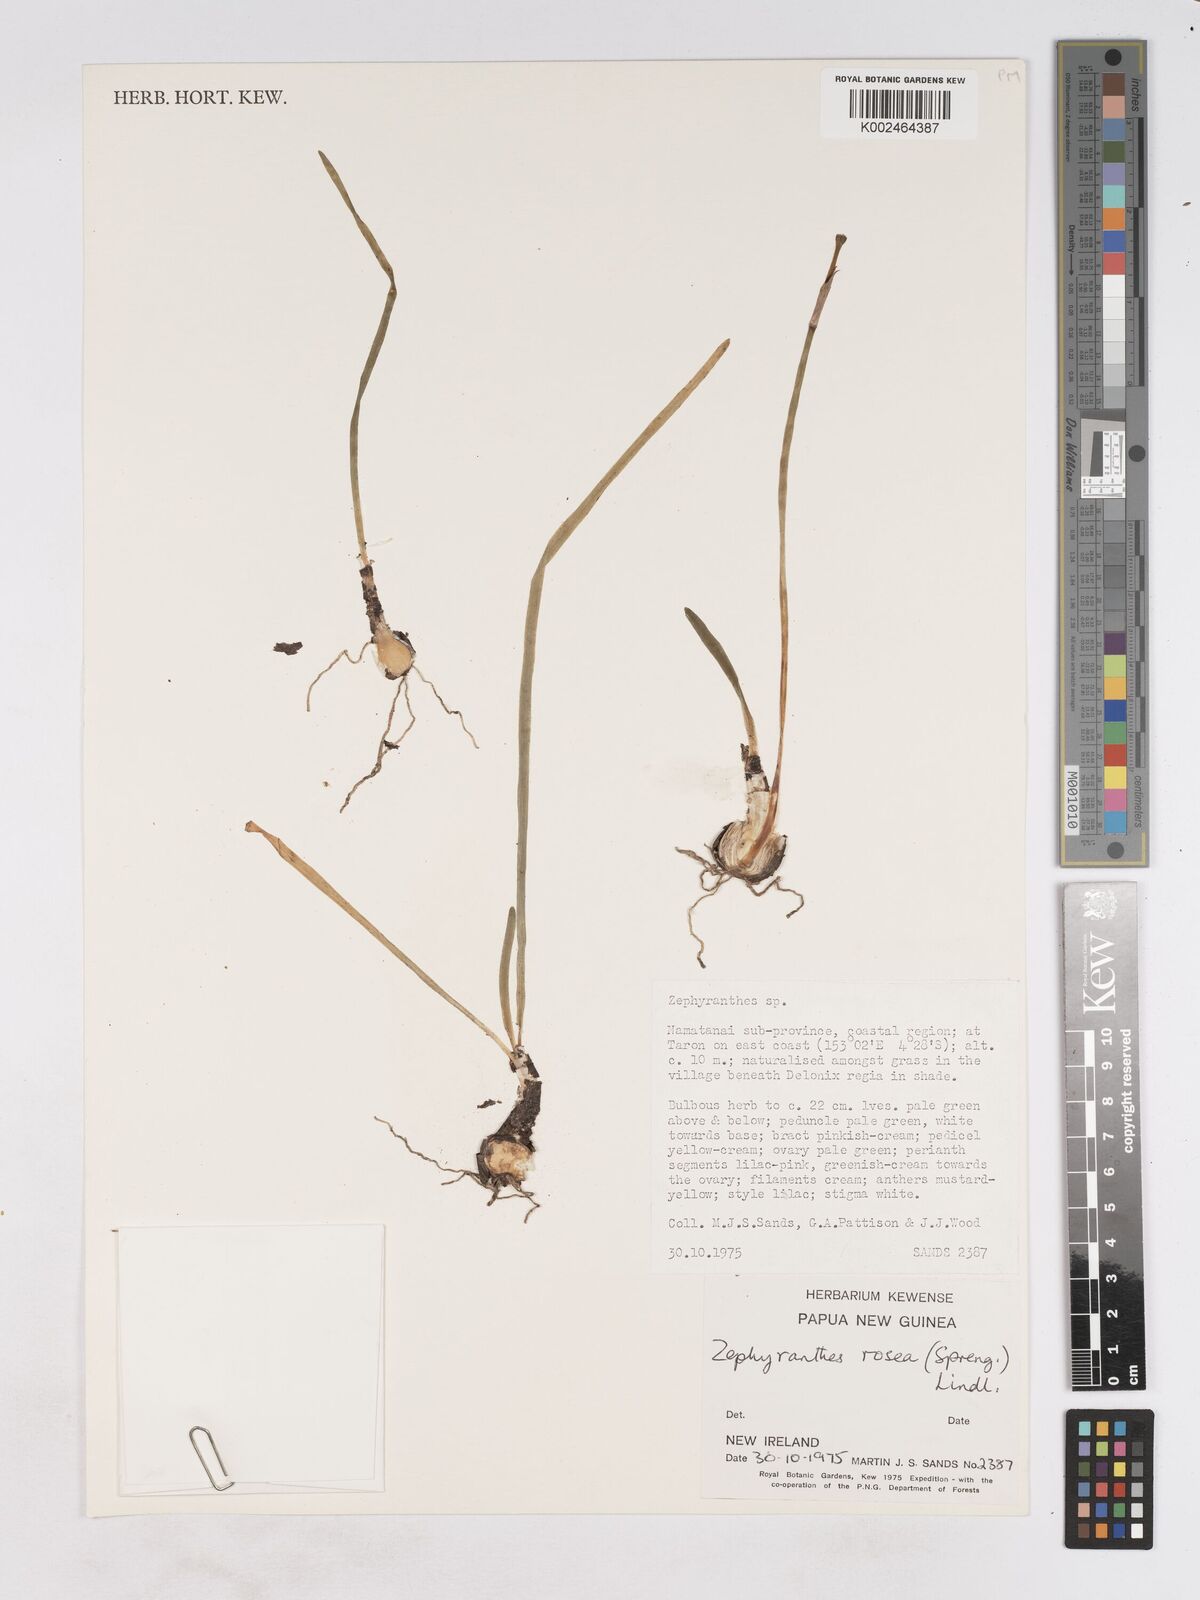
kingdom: Plantae
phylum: Tracheophyta
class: Liliopsida
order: Asparagales
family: Amaryllidaceae
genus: Zephyranthes
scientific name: Zephyranthes rosea
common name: Cuban zephyrlily
